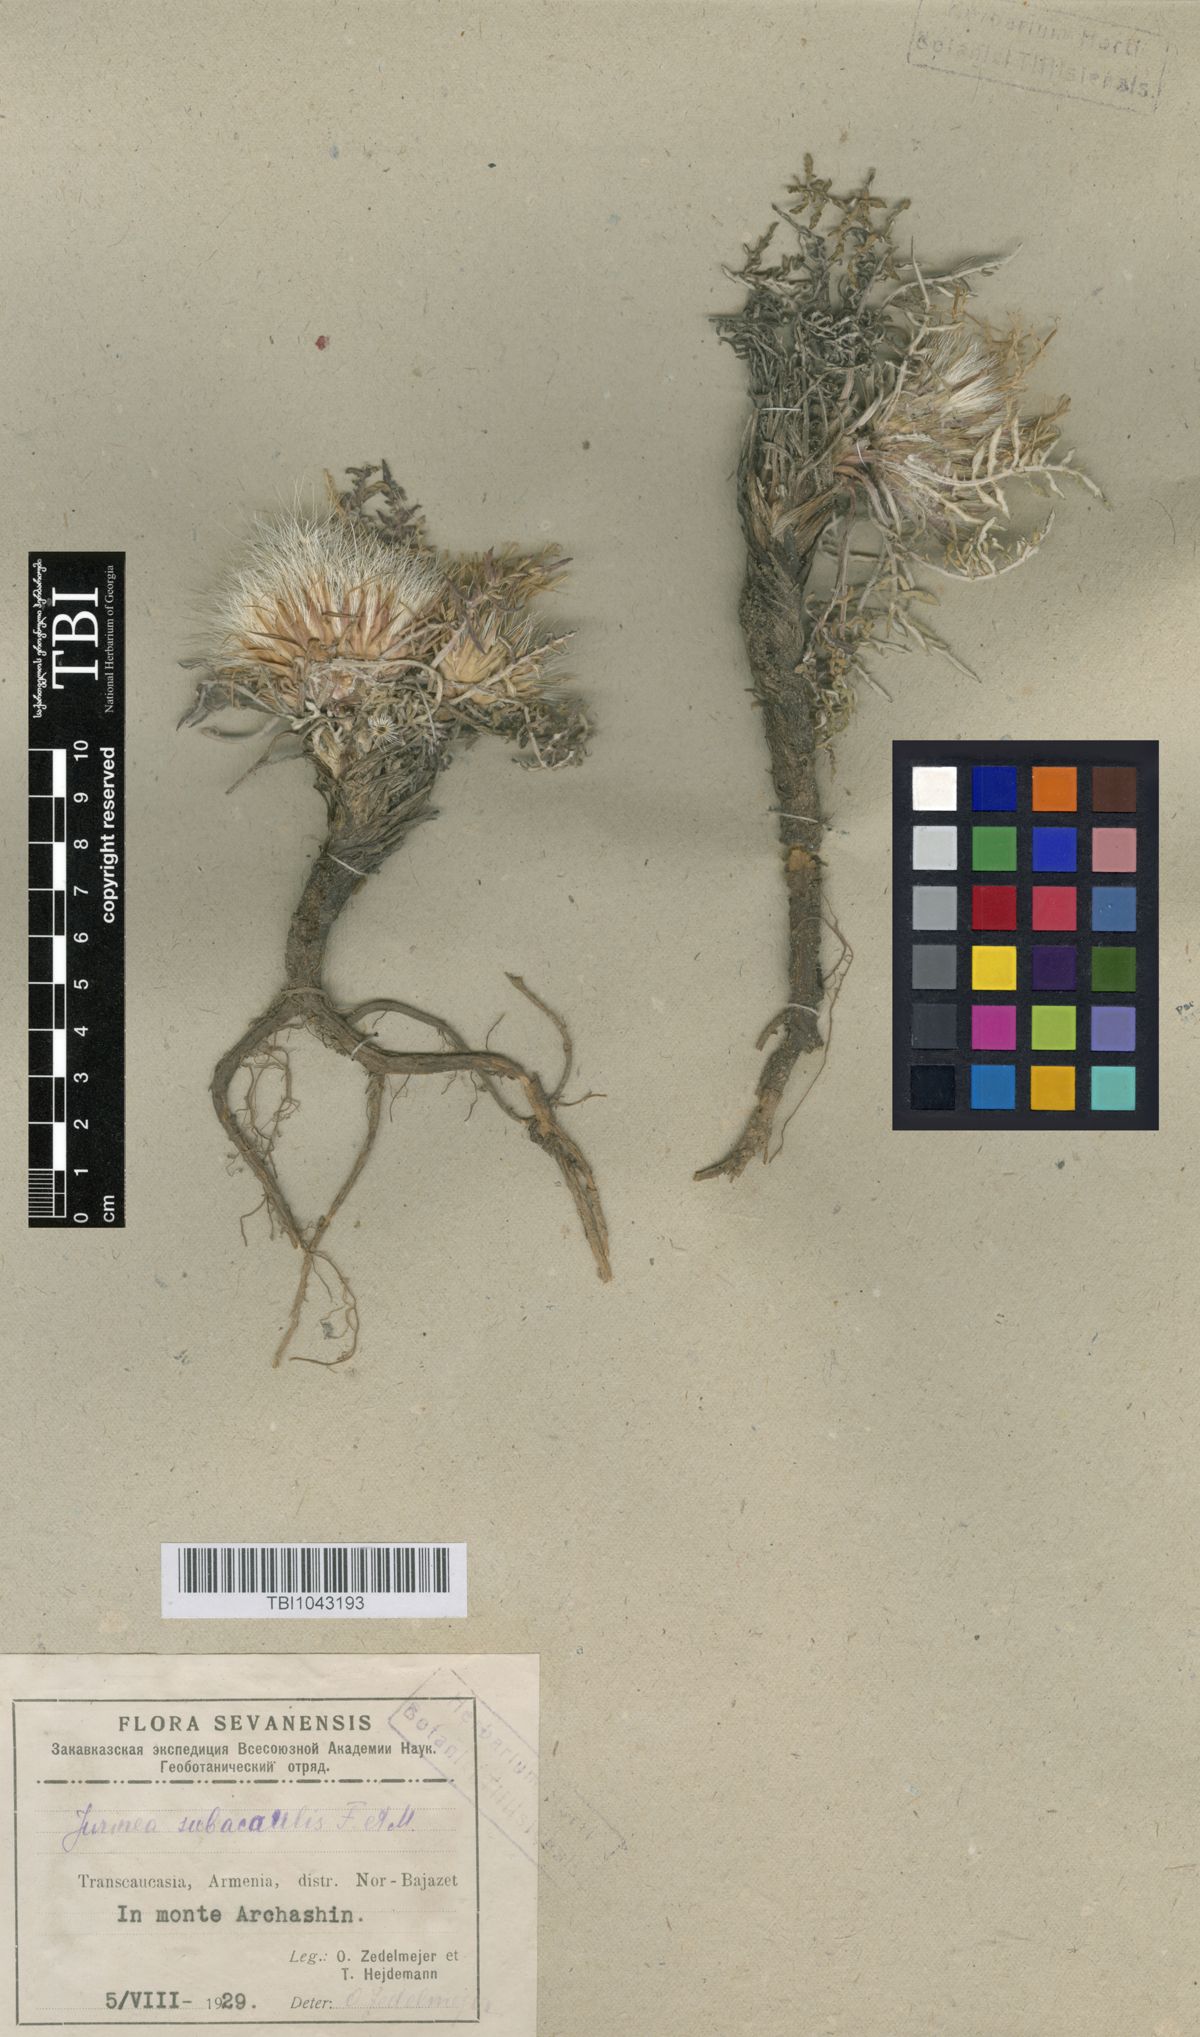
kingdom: Plantae
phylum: Tracheophyta
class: Magnoliopsida
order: Asterales
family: Asteraceae
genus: Jurinea
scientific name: Jurinea moschus
